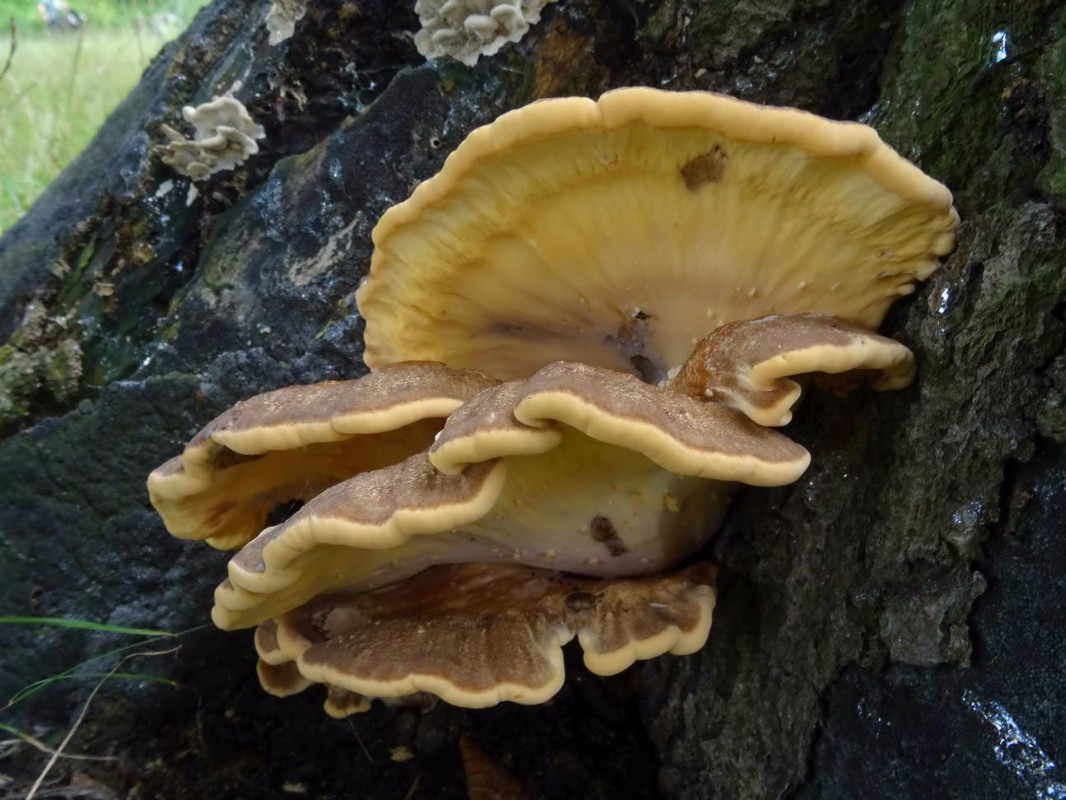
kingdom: Fungi
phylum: Basidiomycota
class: Agaricomycetes
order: Polyporales
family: Meripilaceae
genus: Meripilus
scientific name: Meripilus giganteus
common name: kæmpeporesvamp
